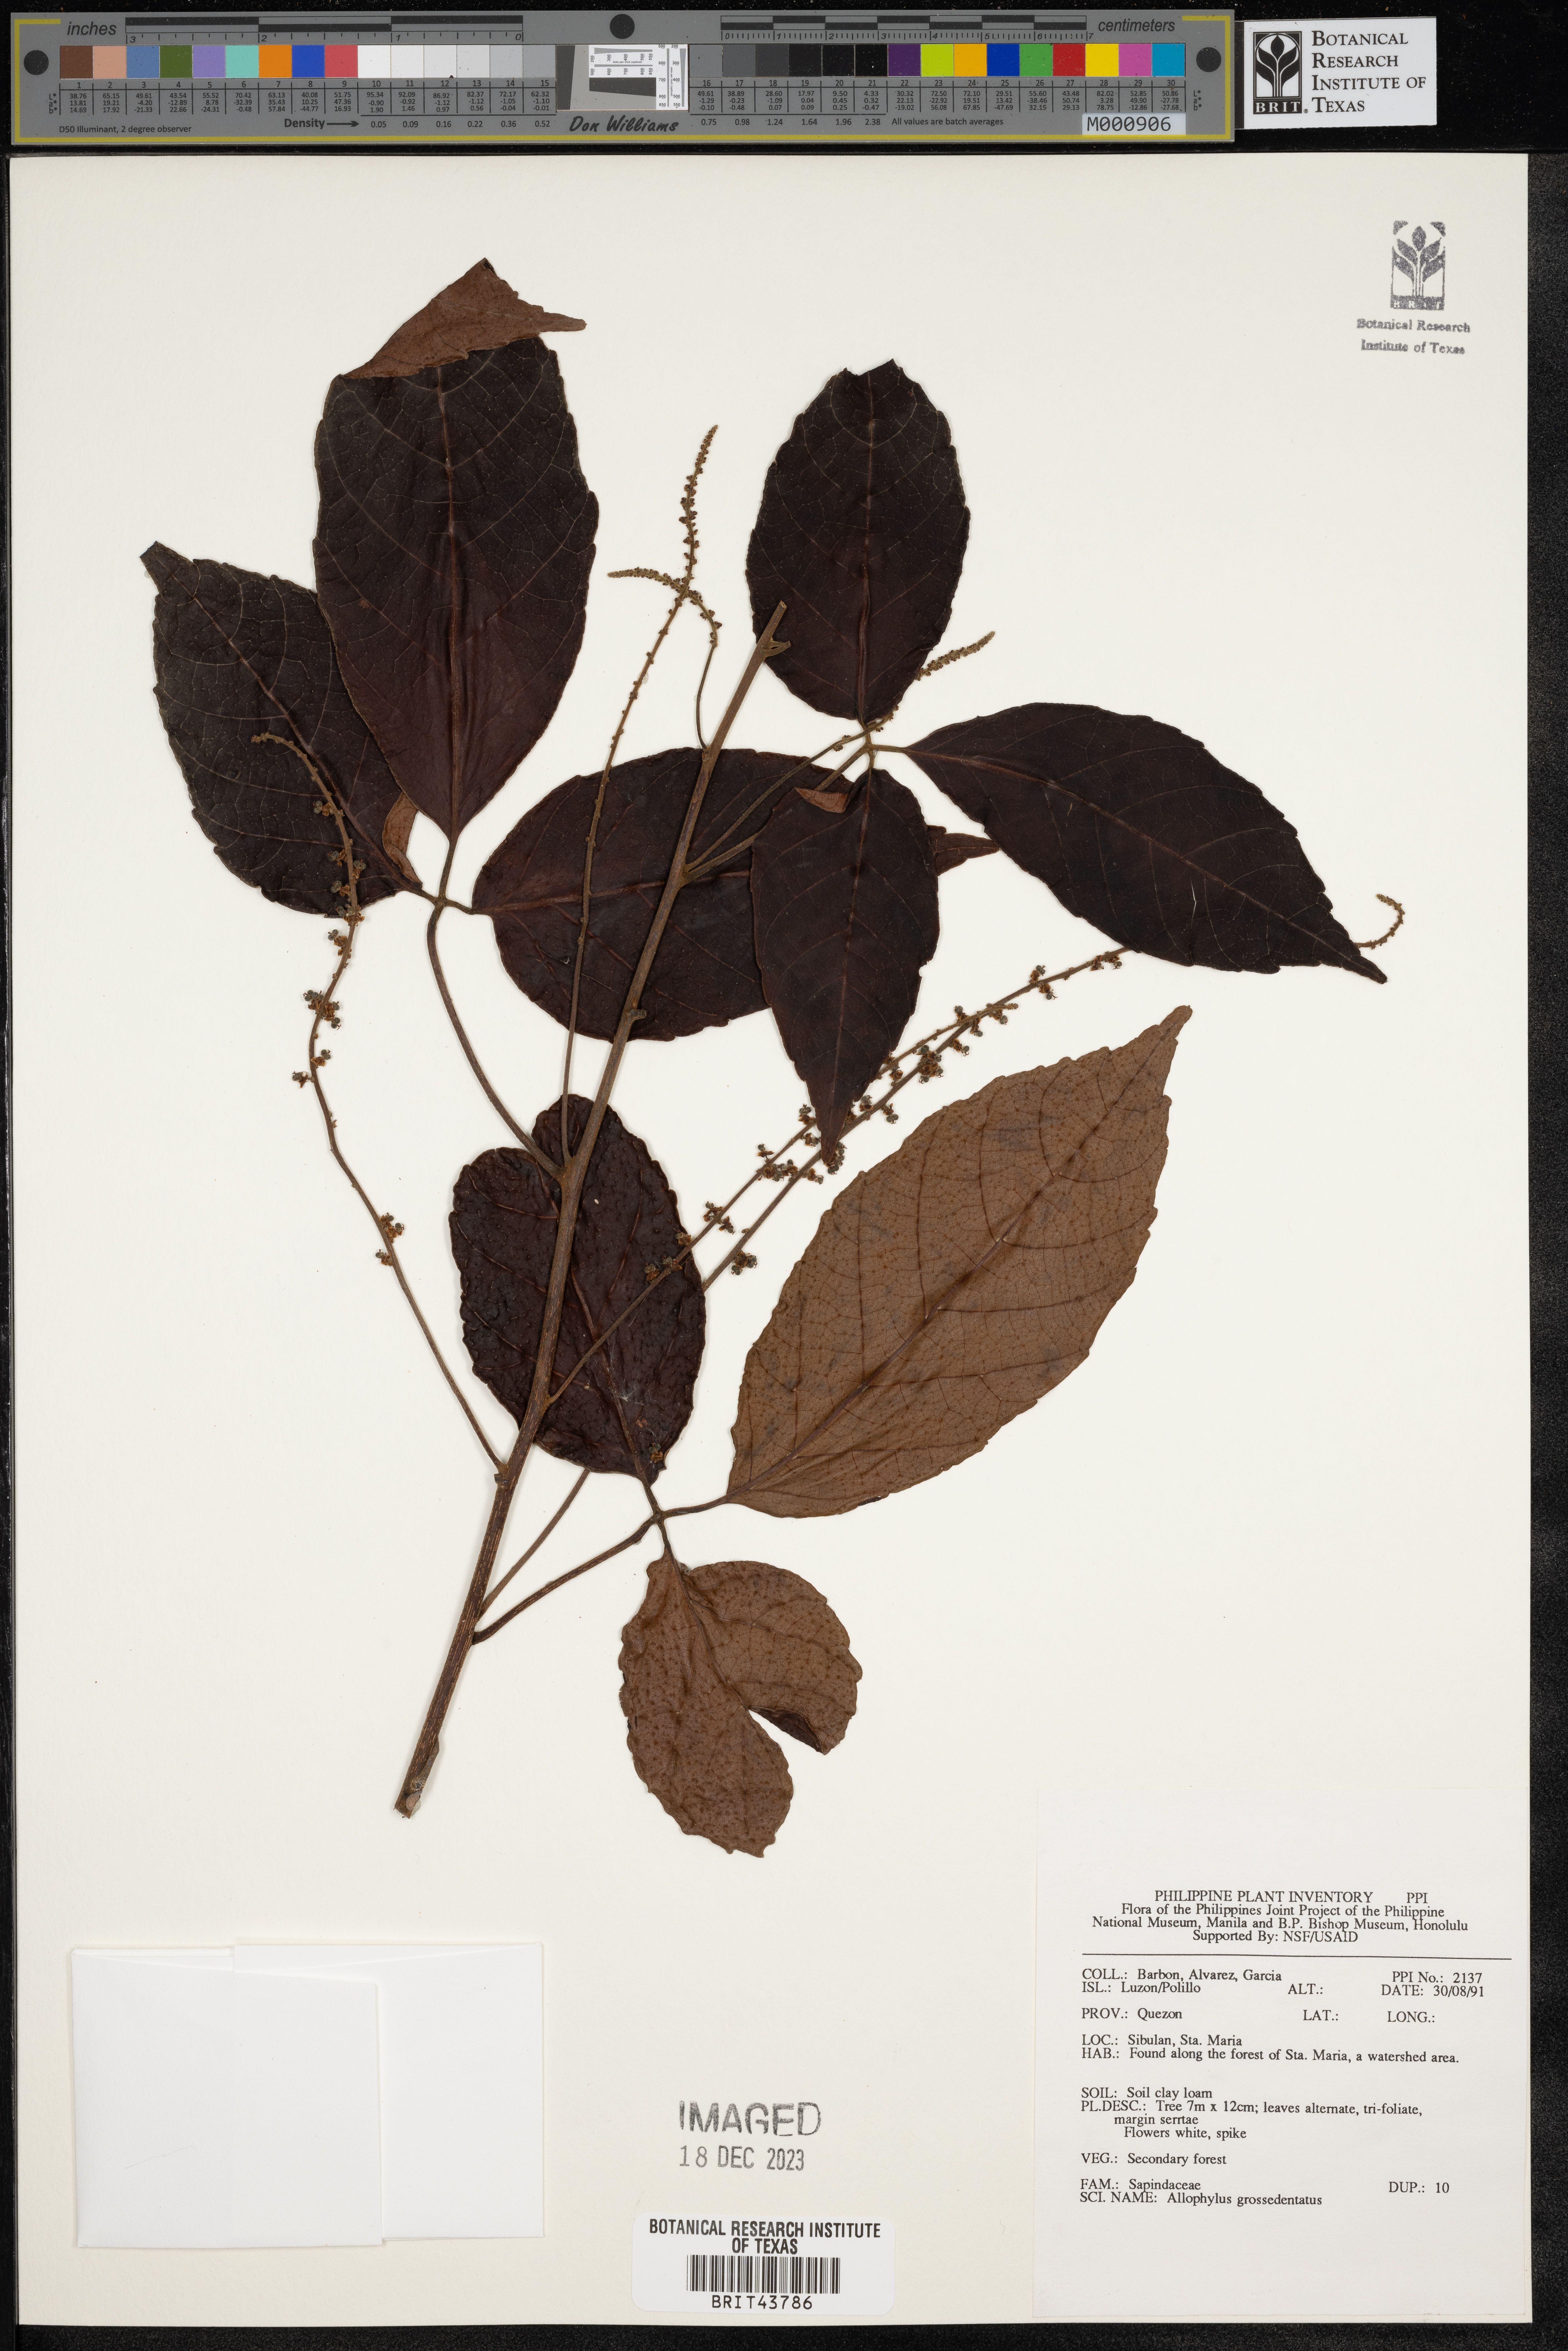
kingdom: Plantae
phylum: Tracheophyta
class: Magnoliopsida
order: Sapindales
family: Sapindaceae
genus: Allophylus
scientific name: Allophylus grossedentatus
